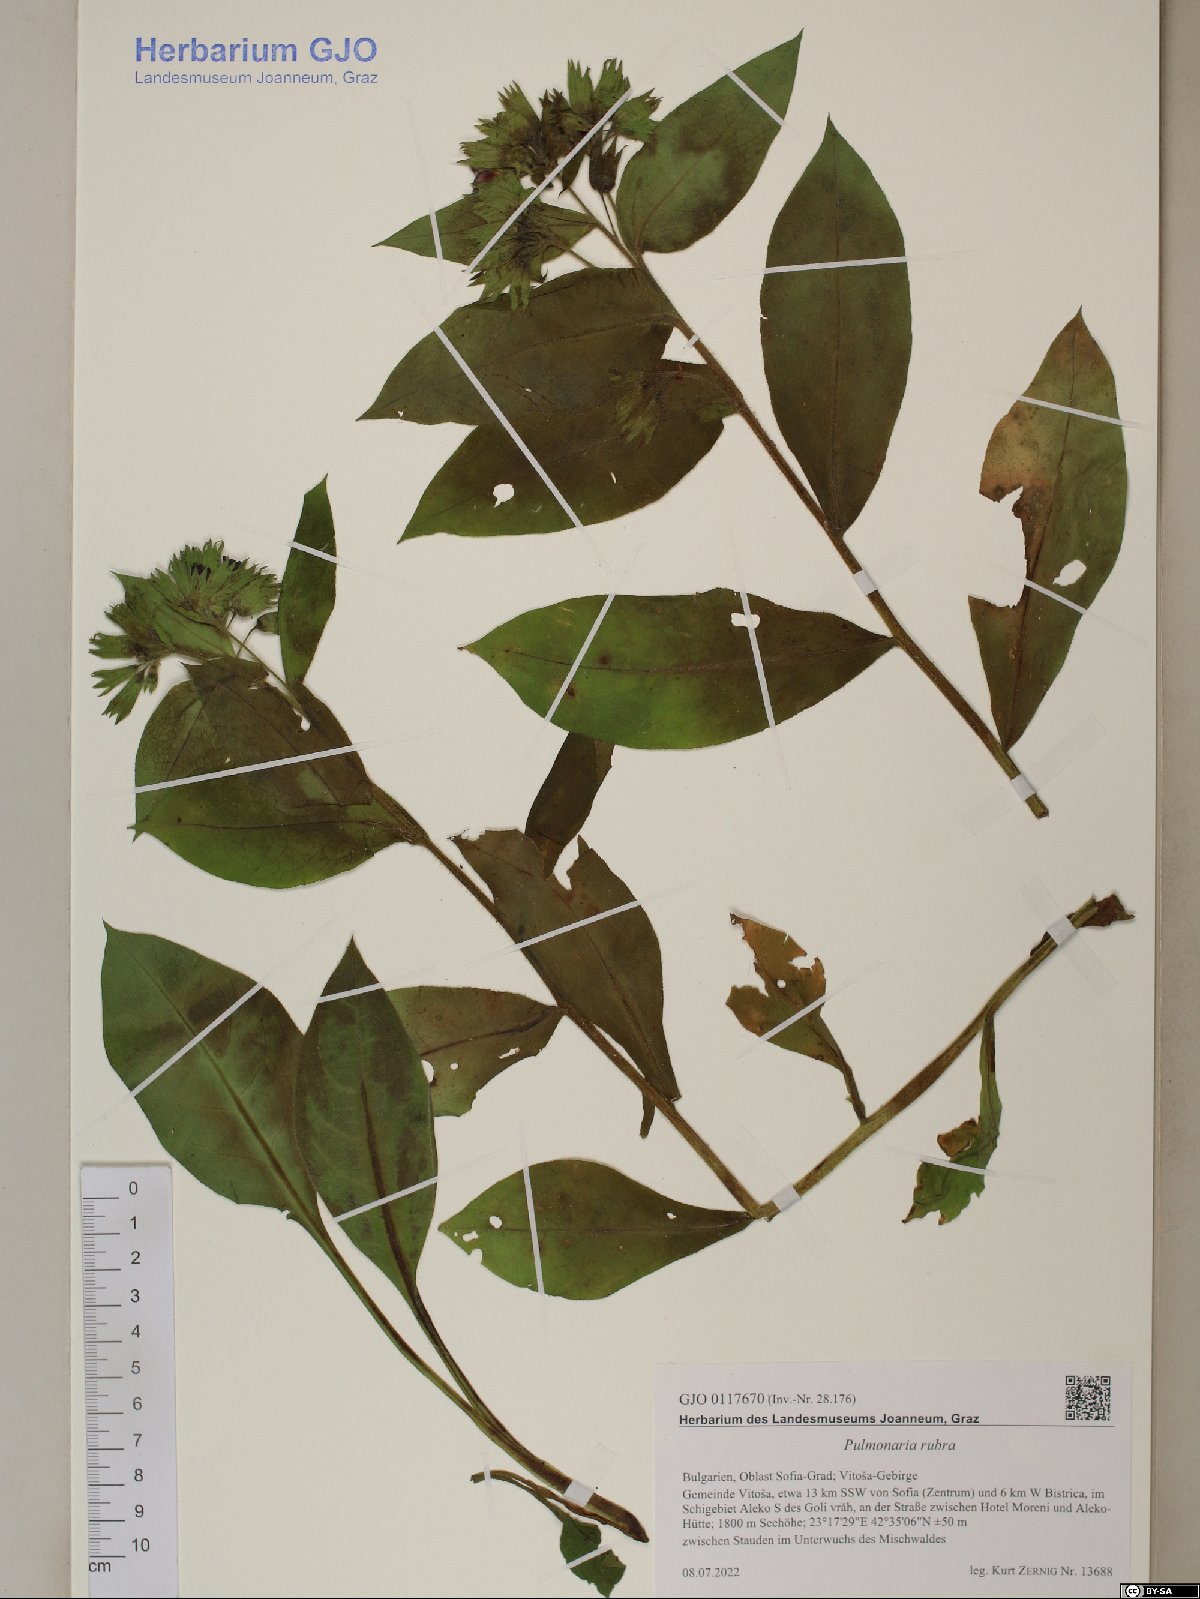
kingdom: Plantae
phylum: Tracheophyta
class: Magnoliopsida
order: Boraginales
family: Boraginaceae
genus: Pulmonaria
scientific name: Pulmonaria rubra
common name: Red lungwort
